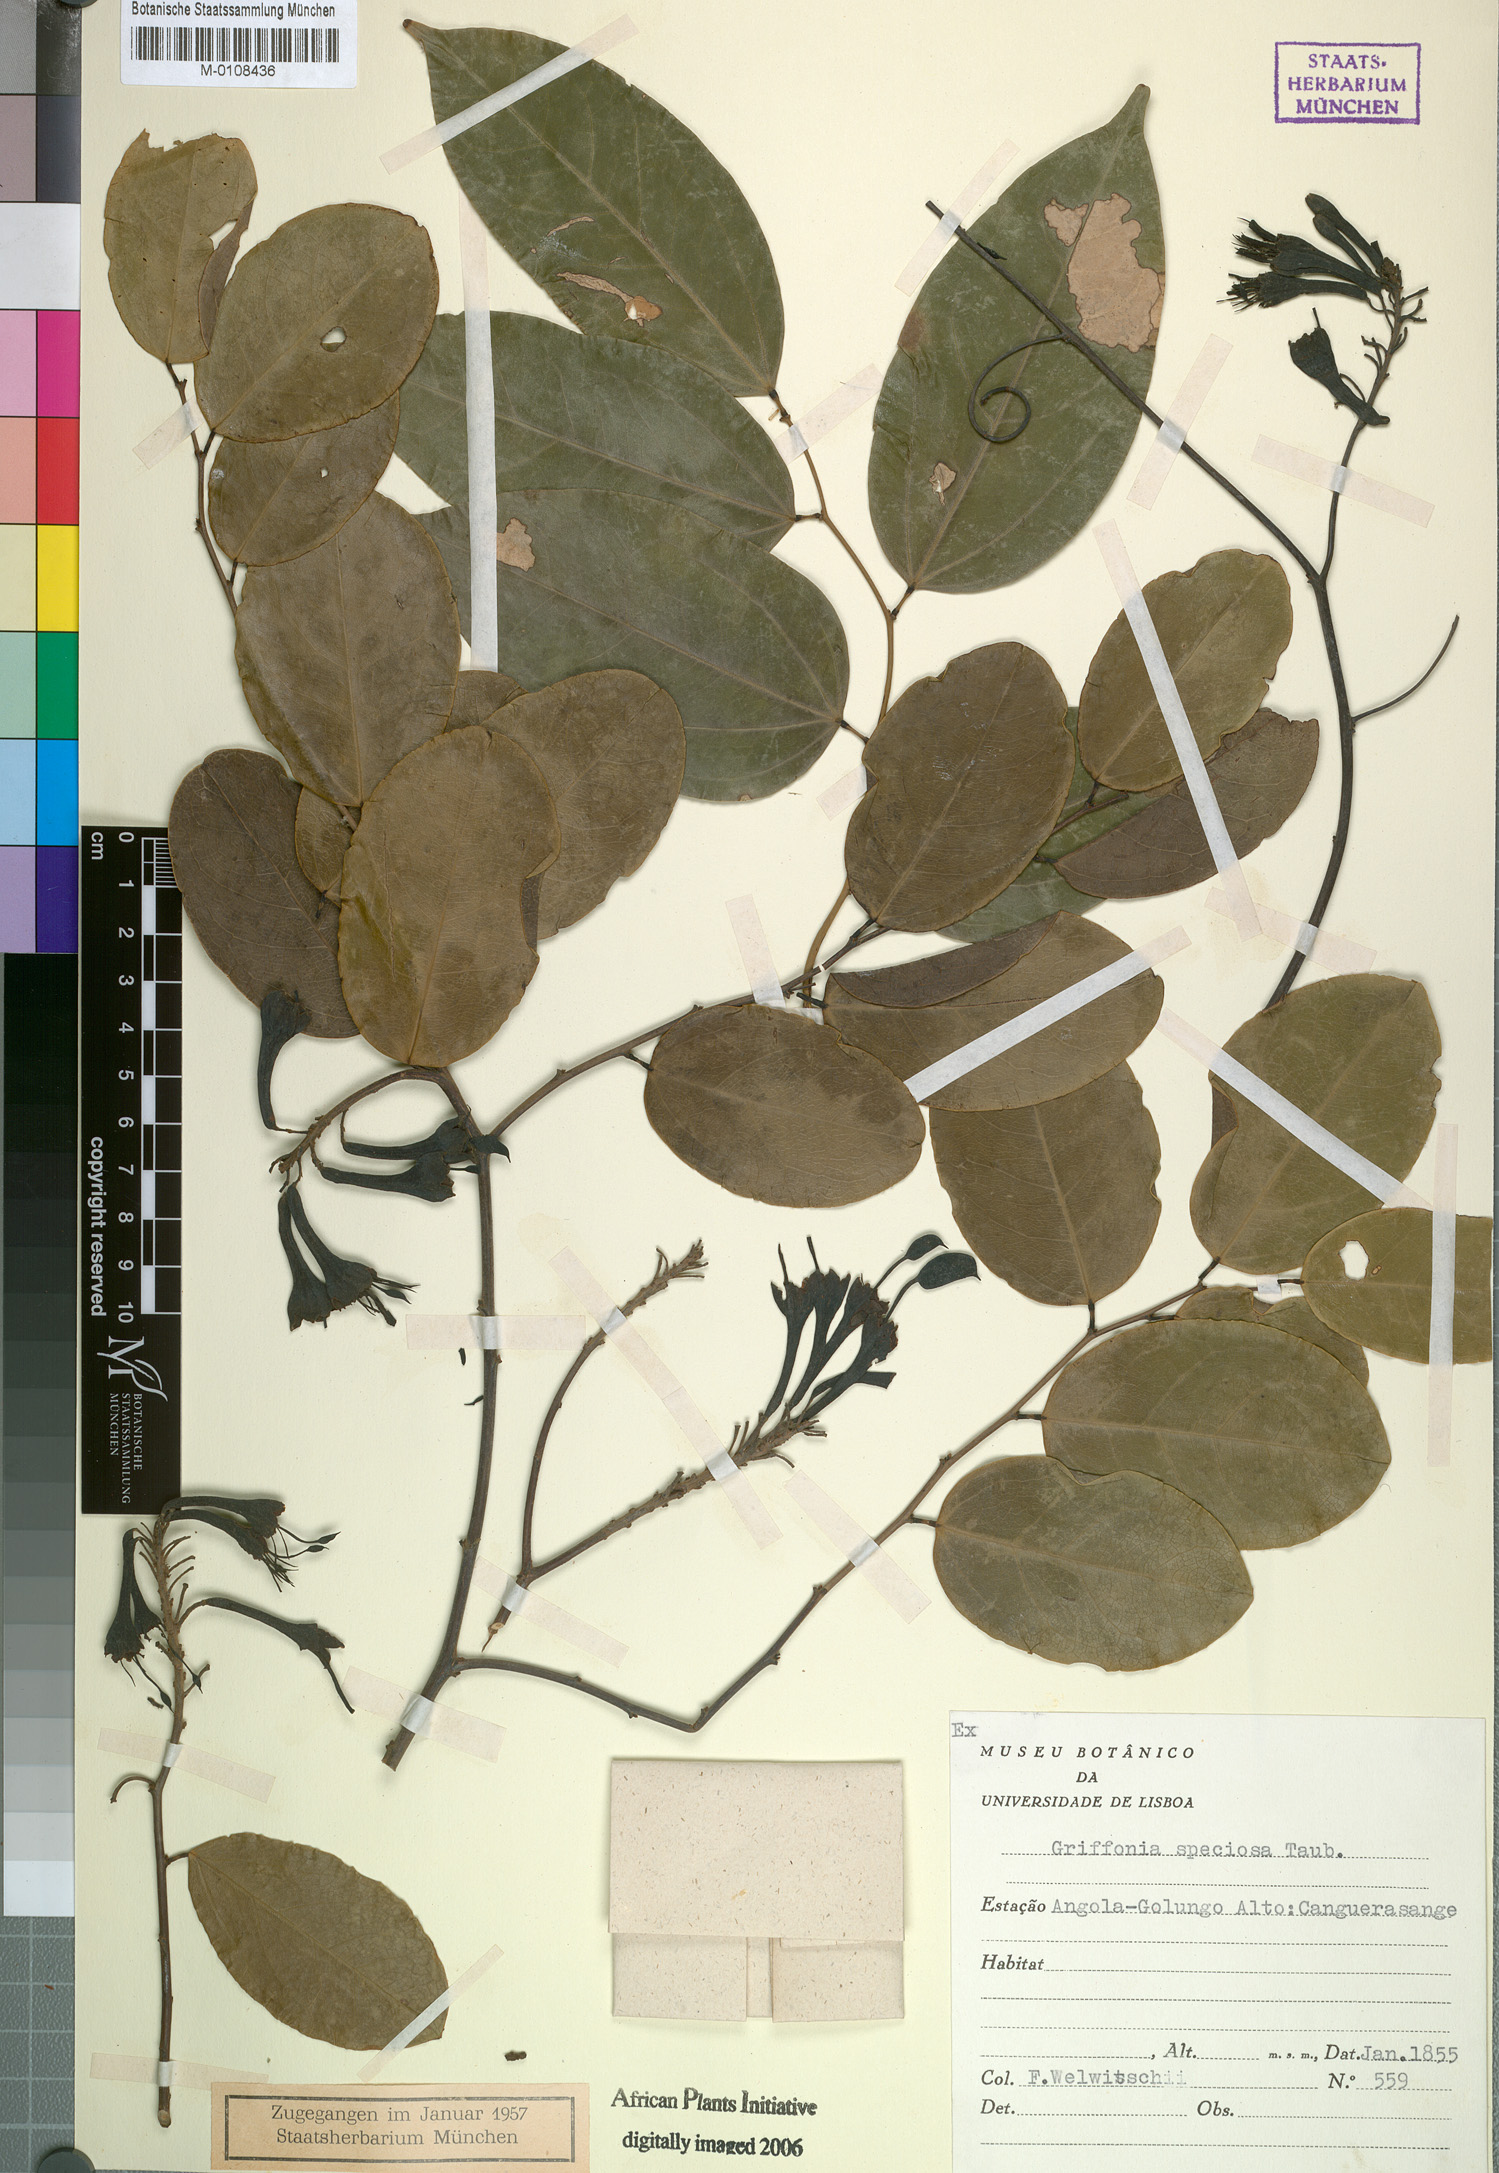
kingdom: Plantae
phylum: Tracheophyta
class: Magnoliopsida
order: Fabales
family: Fabaceae
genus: Griffonia
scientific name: Griffonia speciosa
